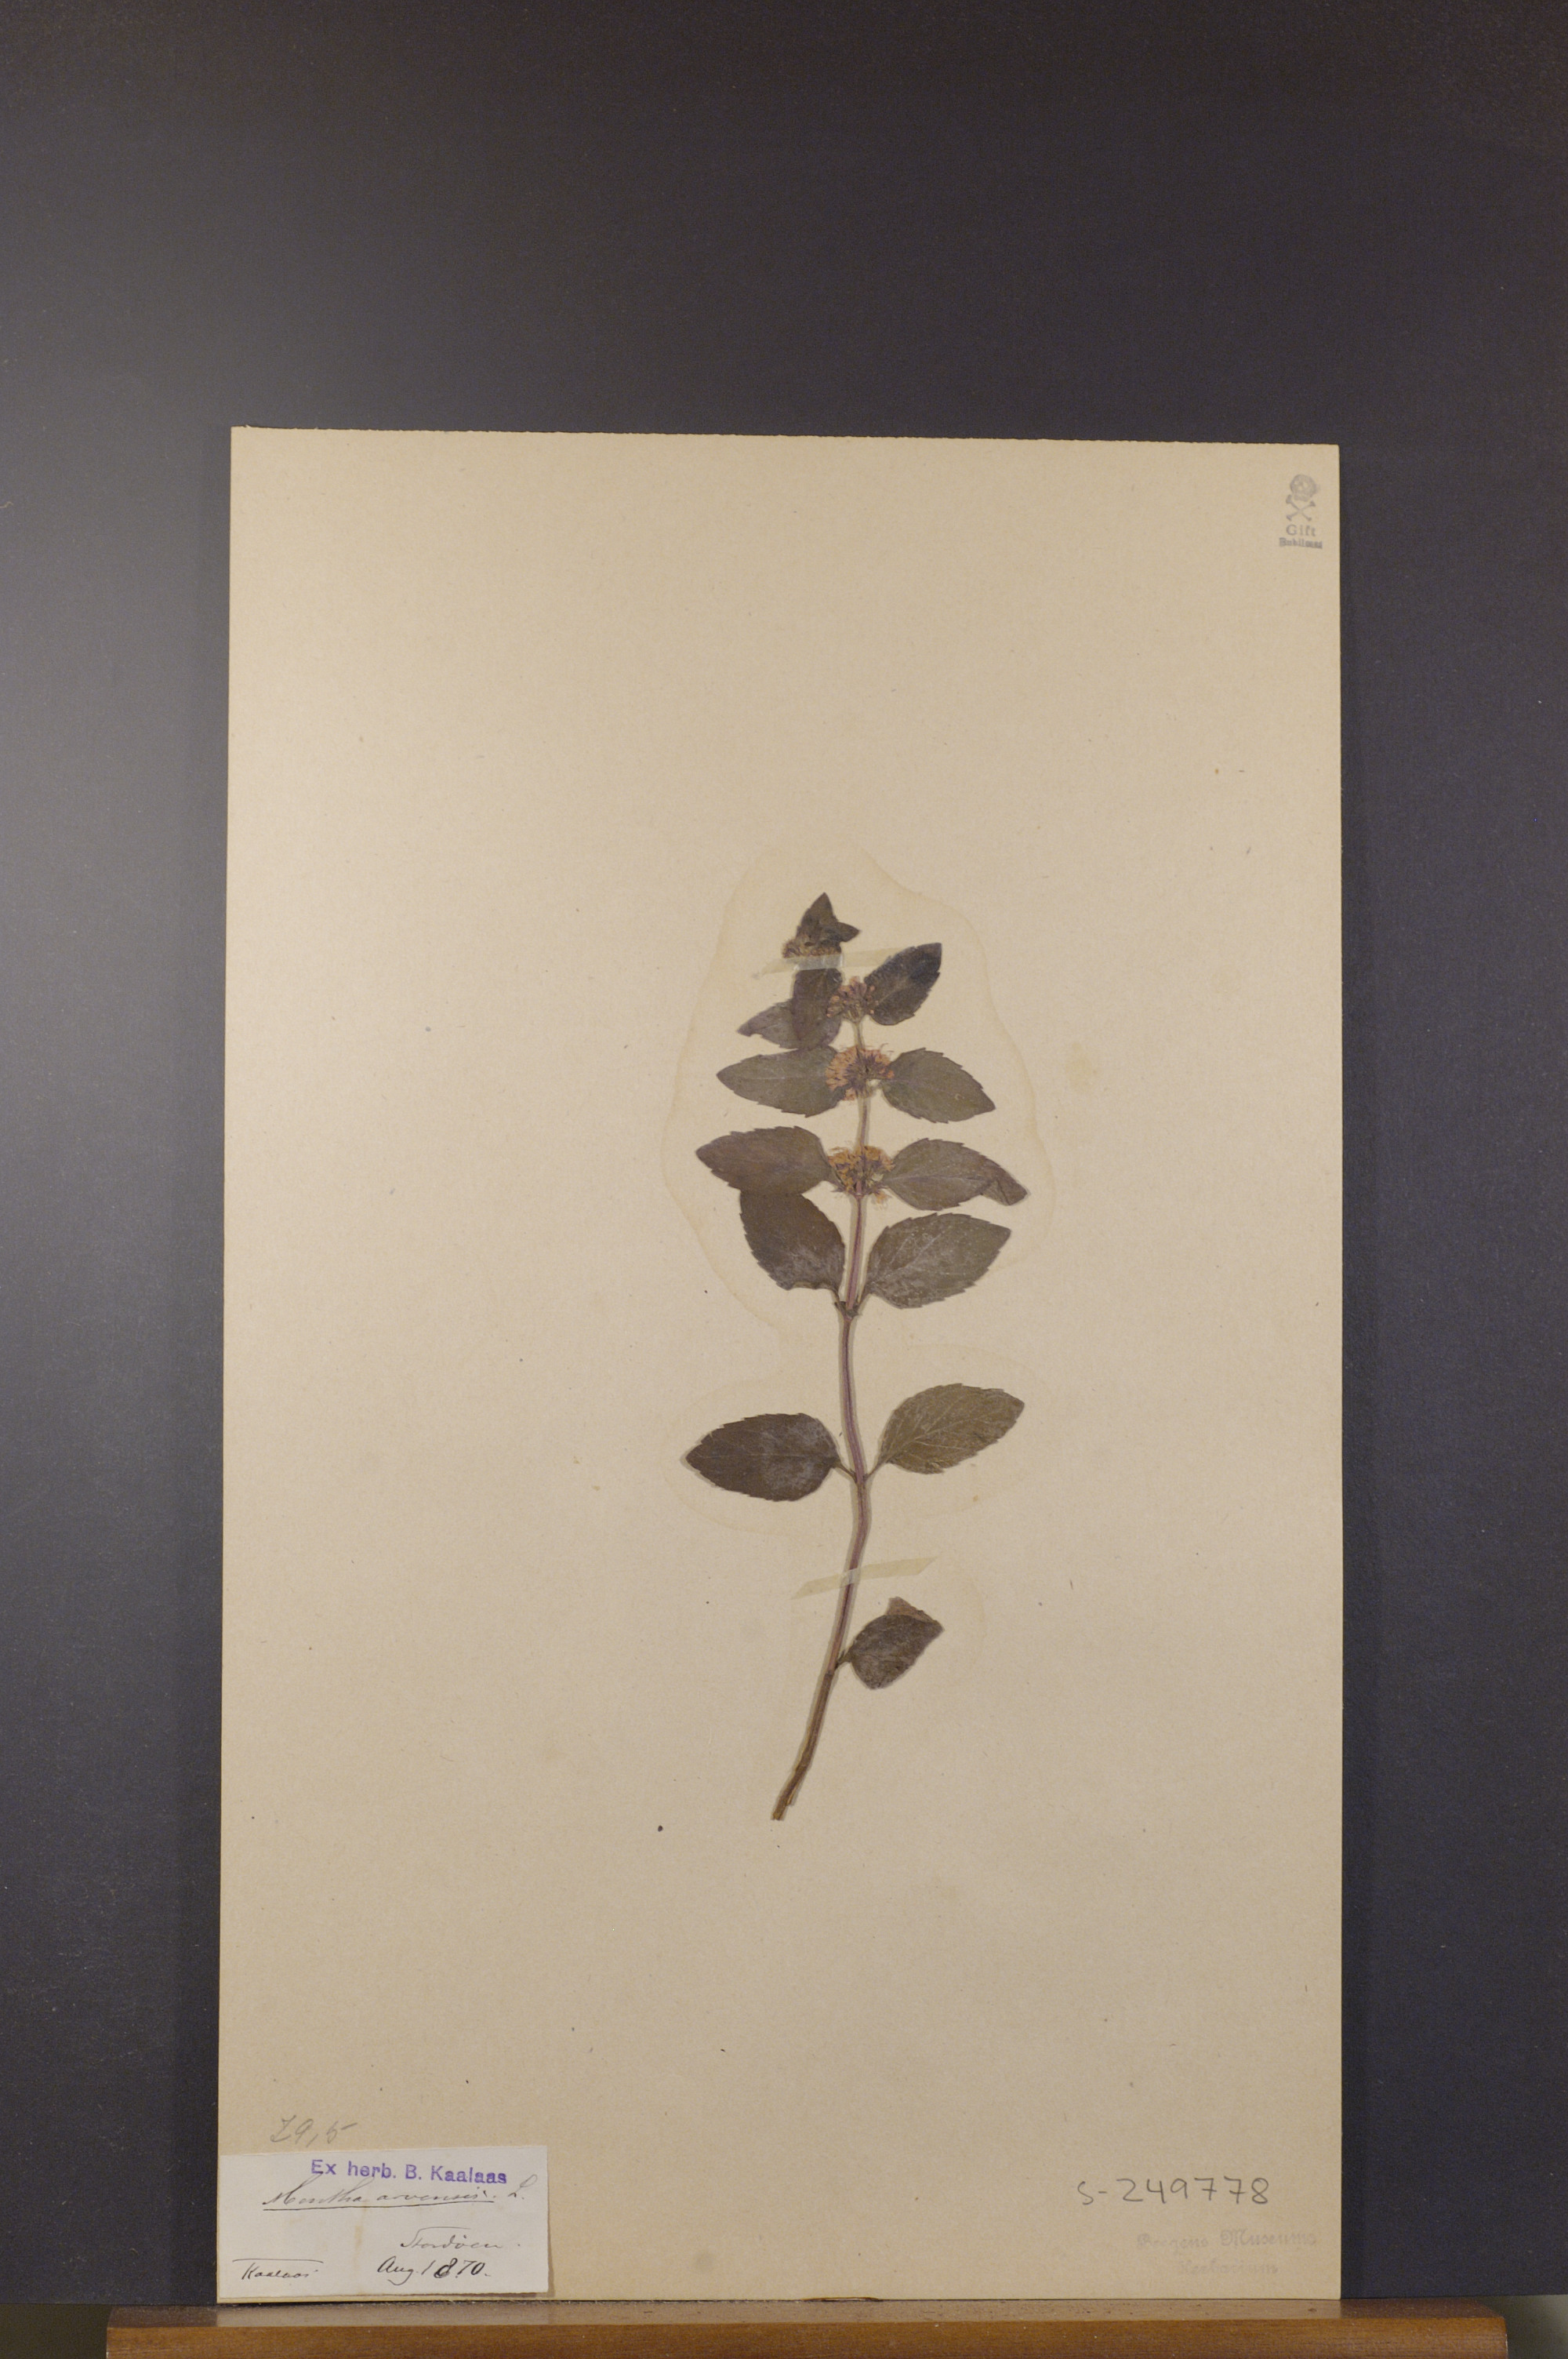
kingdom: Plantae
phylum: Tracheophyta
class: Magnoliopsida
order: Lamiales
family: Lamiaceae
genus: Mentha
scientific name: Mentha arvensis
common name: Corn mint
